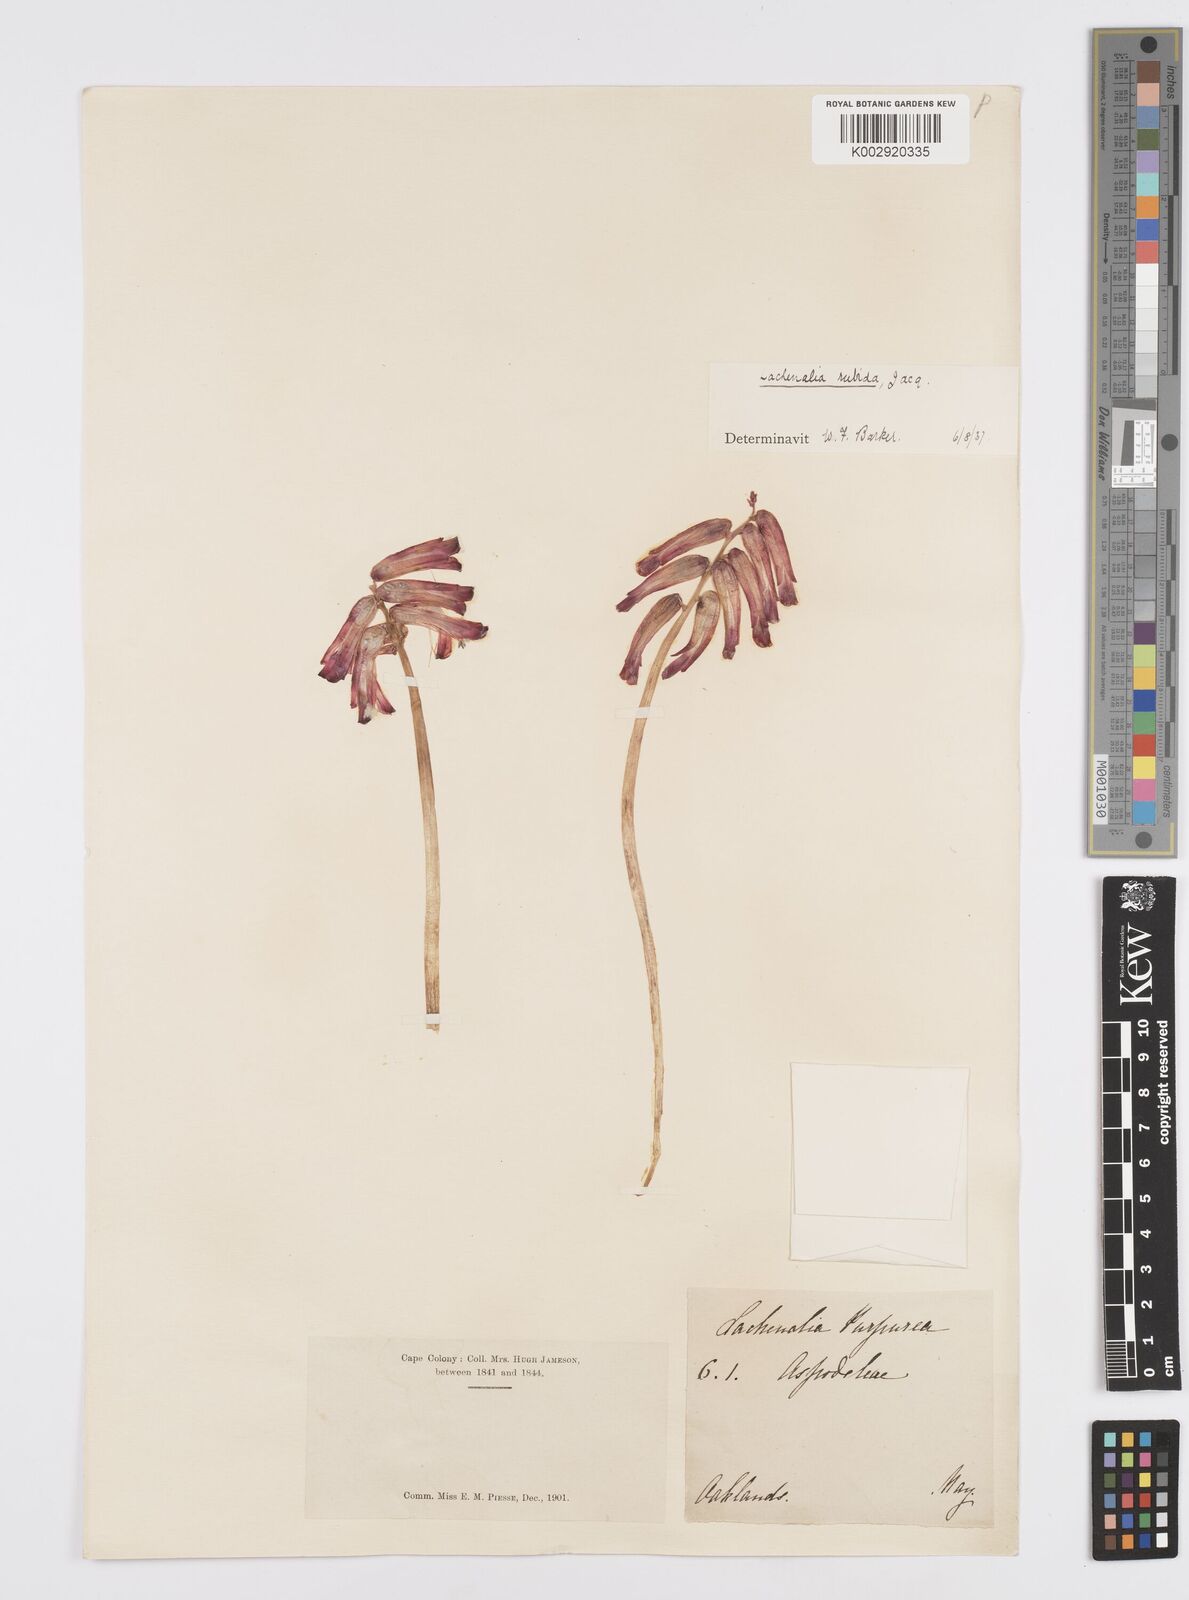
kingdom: Plantae
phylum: Tracheophyta
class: Liliopsida
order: Asparagales
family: Asparagaceae
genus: Lachenalia
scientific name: Lachenalia punctata
